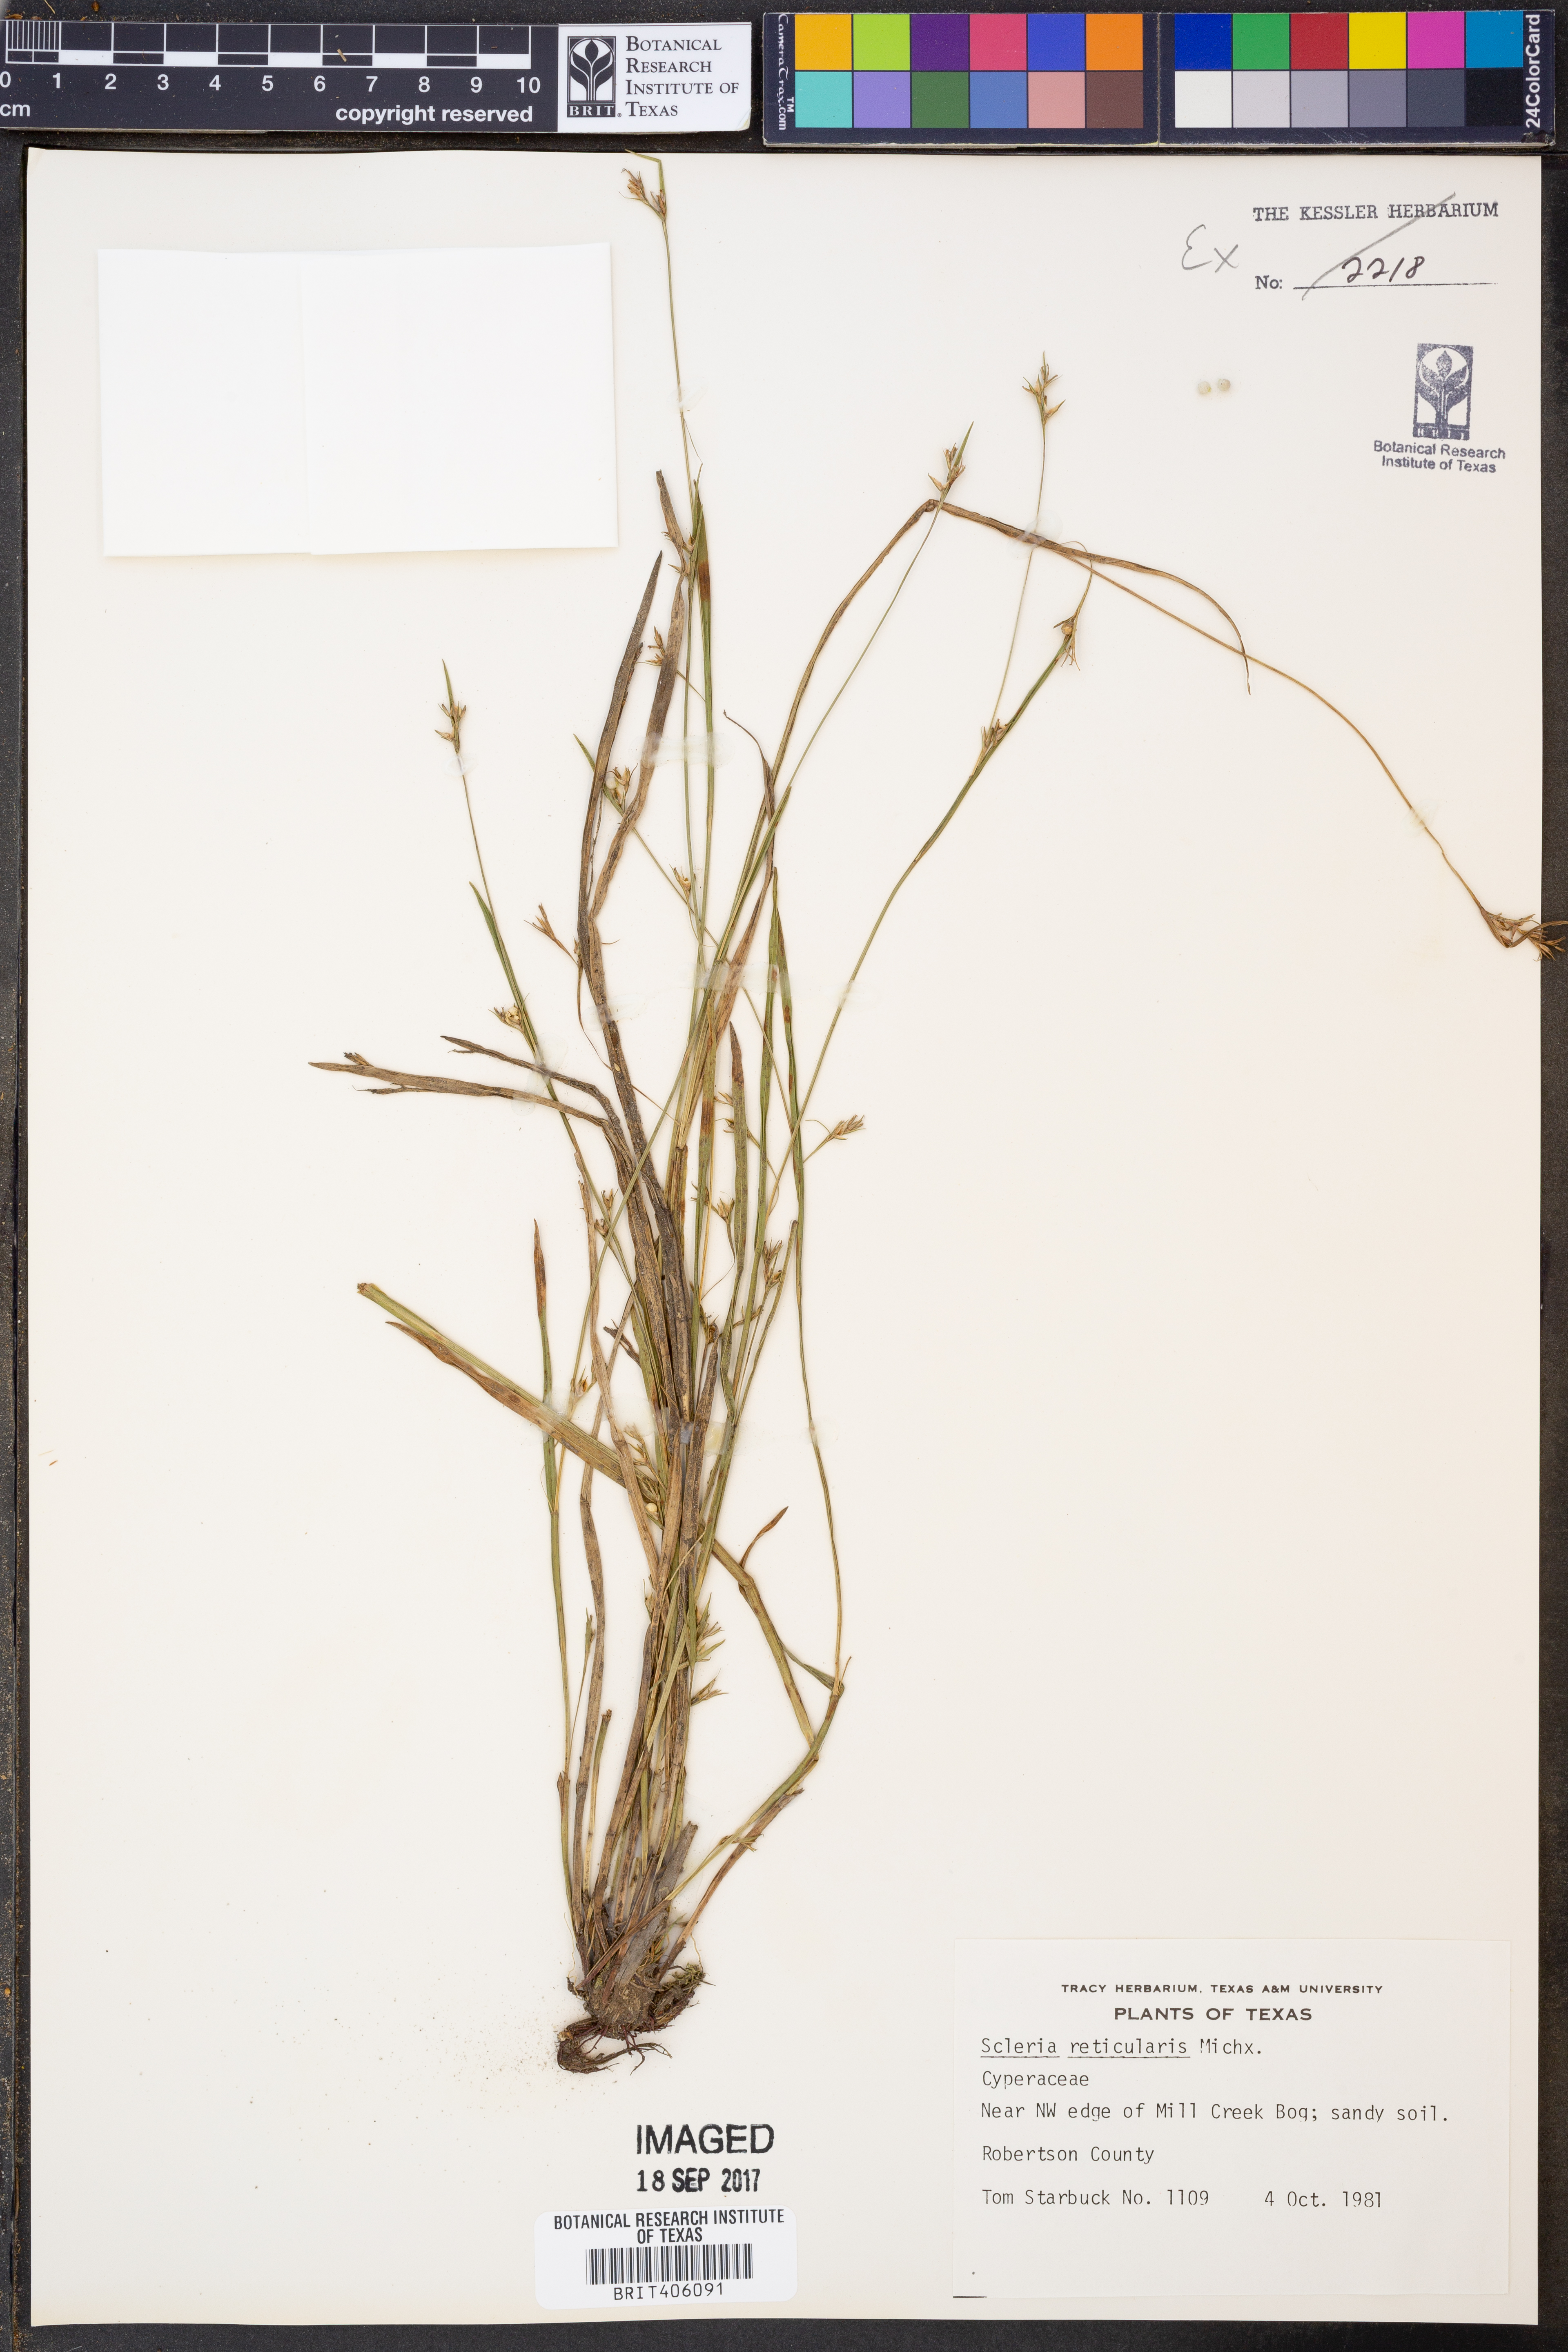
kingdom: Plantae
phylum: Tracheophyta
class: Liliopsida
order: Poales
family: Cyperaceae
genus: Scleria
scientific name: Scleria reticularis
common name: Netted nutrush
